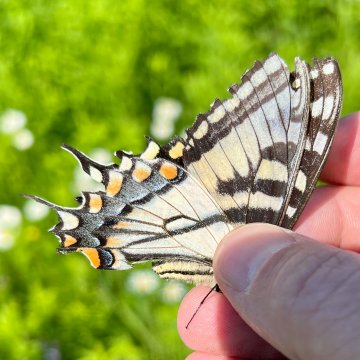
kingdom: Animalia
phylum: Arthropoda
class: Insecta
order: Lepidoptera
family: Papilionidae
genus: Pterourus
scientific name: Pterourus canadensis
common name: Canadian Tiger Swallowtail
